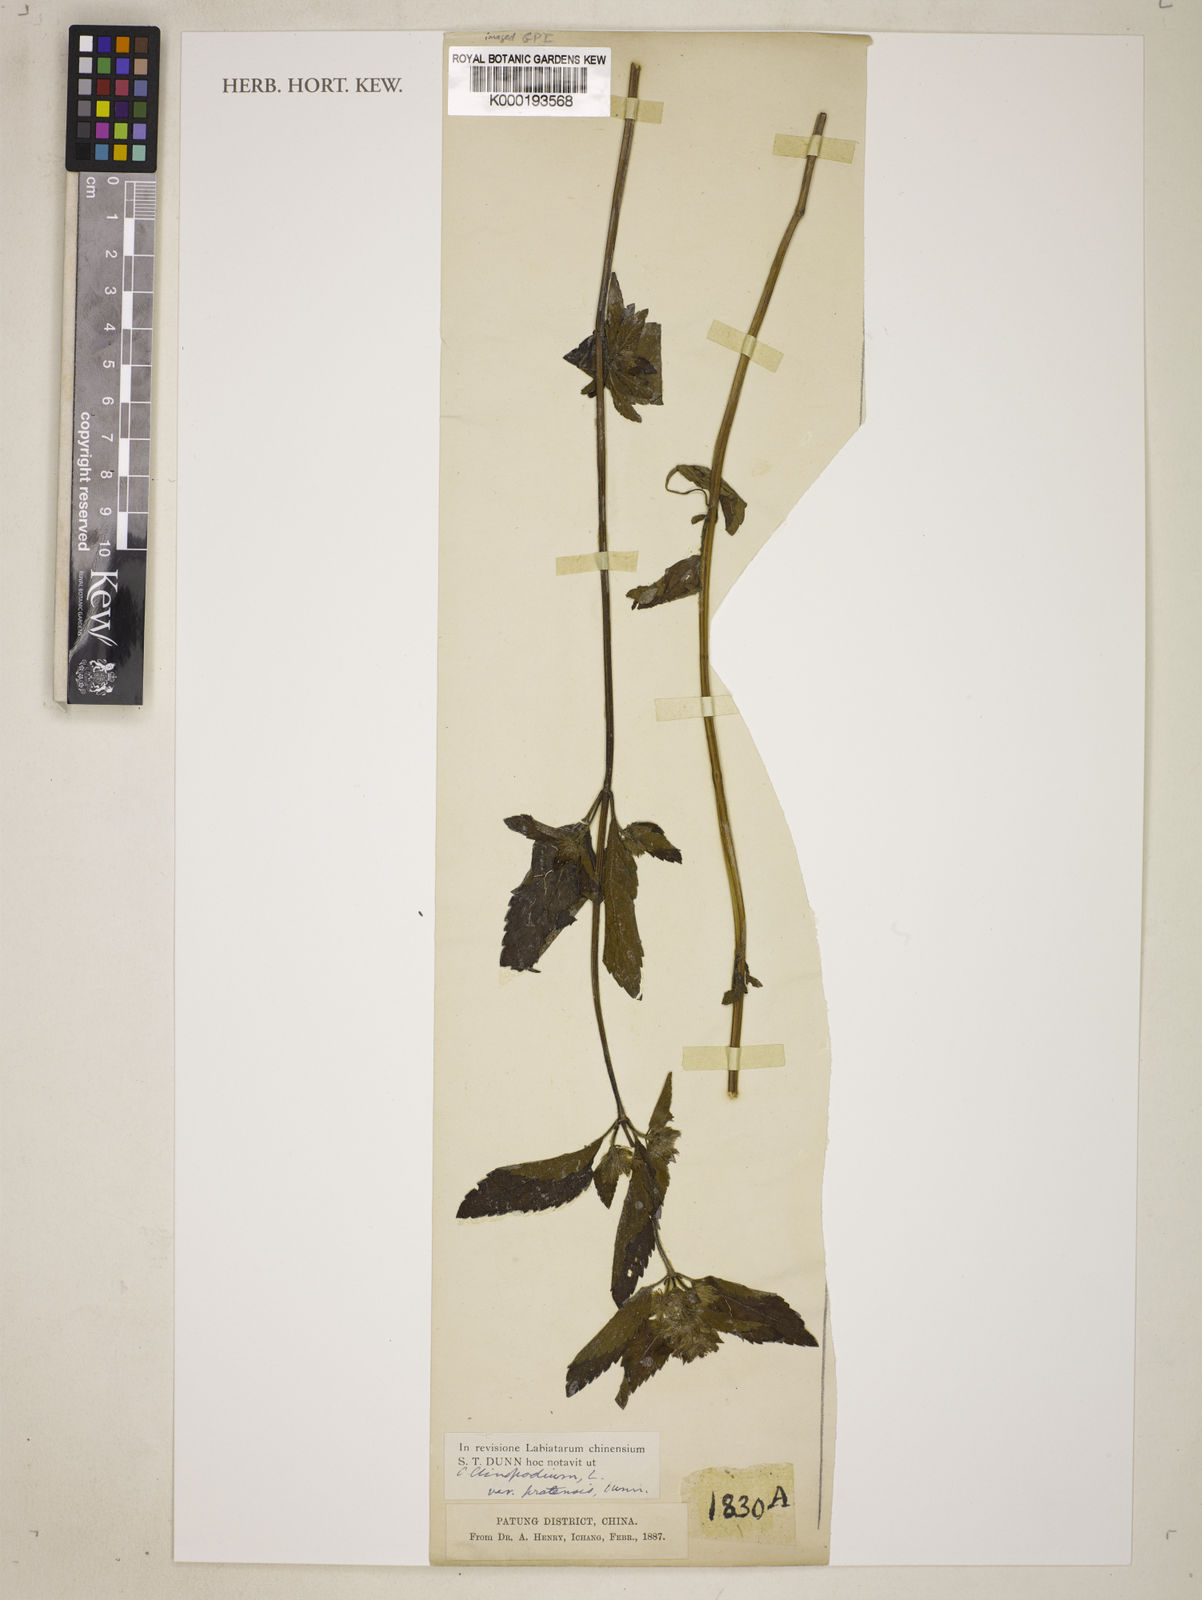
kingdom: Plantae
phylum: Tracheophyta
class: Magnoliopsida
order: Lamiales
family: Lamiaceae
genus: Calamintha
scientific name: Calamintha
